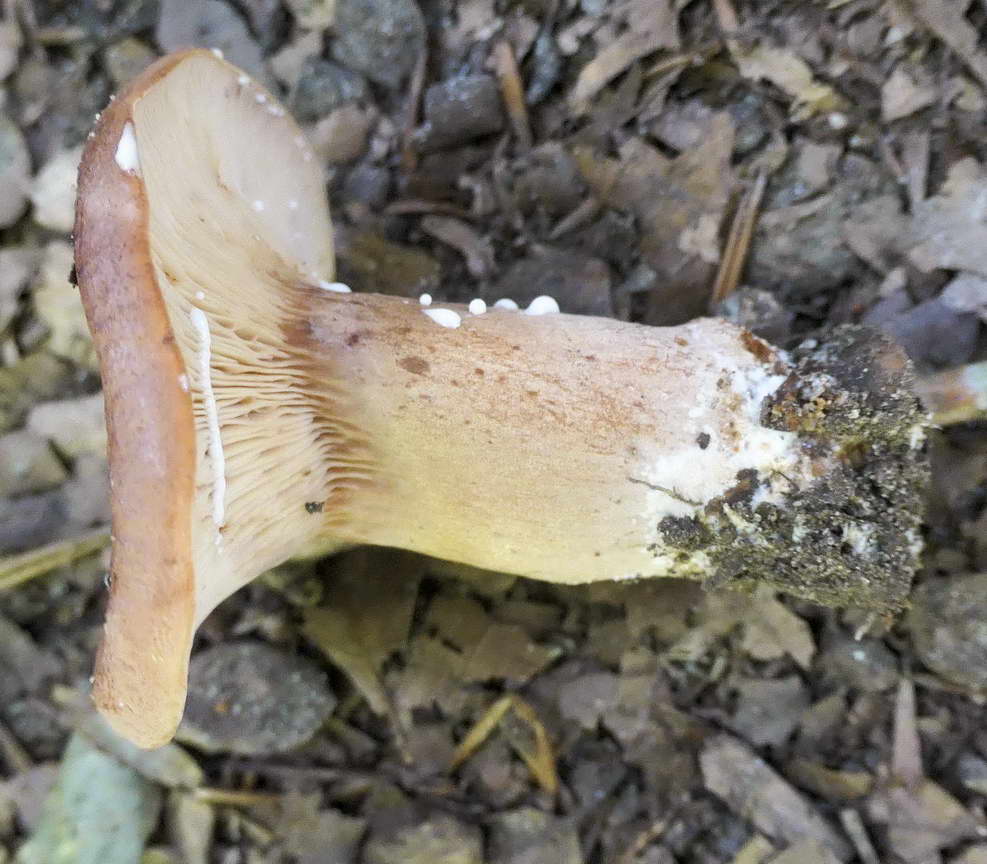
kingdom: Fungi
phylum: Basidiomycota
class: Agaricomycetes
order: Russulales
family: Russulaceae
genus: Lactarius
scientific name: Lactarius rubrocinctus
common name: halsbånd-mælkehat
